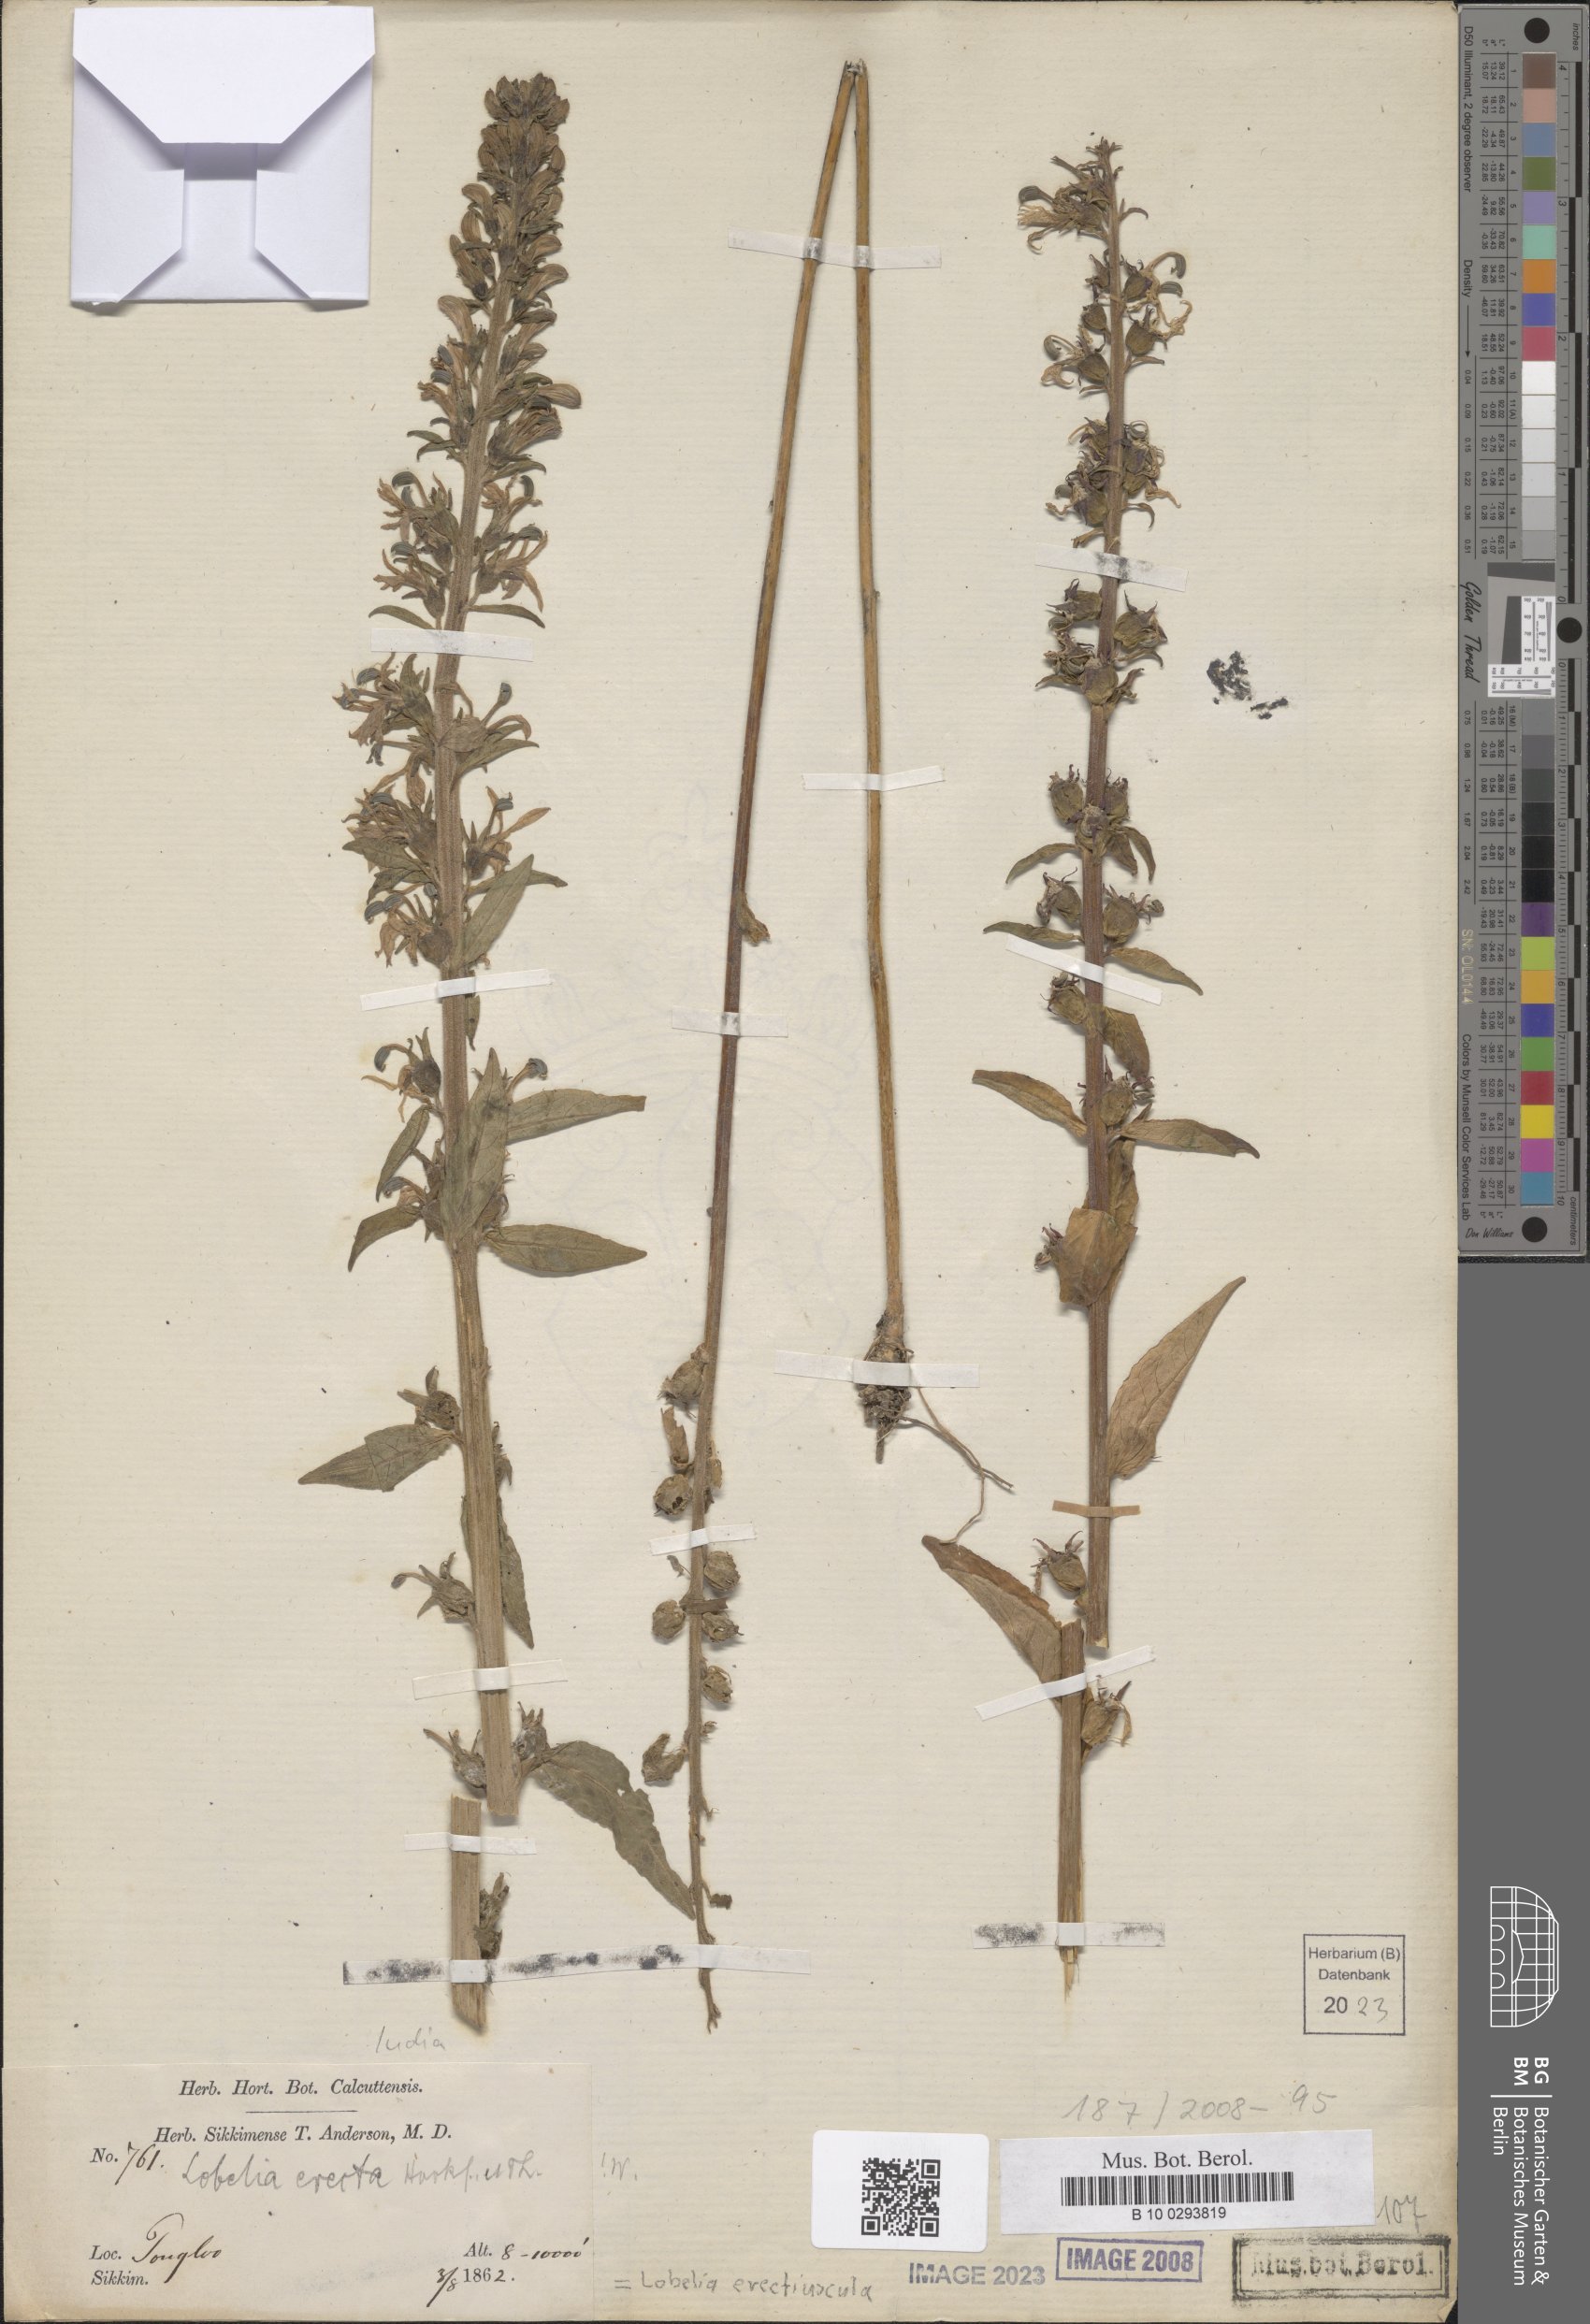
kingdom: Plantae
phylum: Tracheophyta
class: Magnoliopsida
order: Asterales
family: Campanulaceae
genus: Lobelia
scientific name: Lobelia erectiuscula
